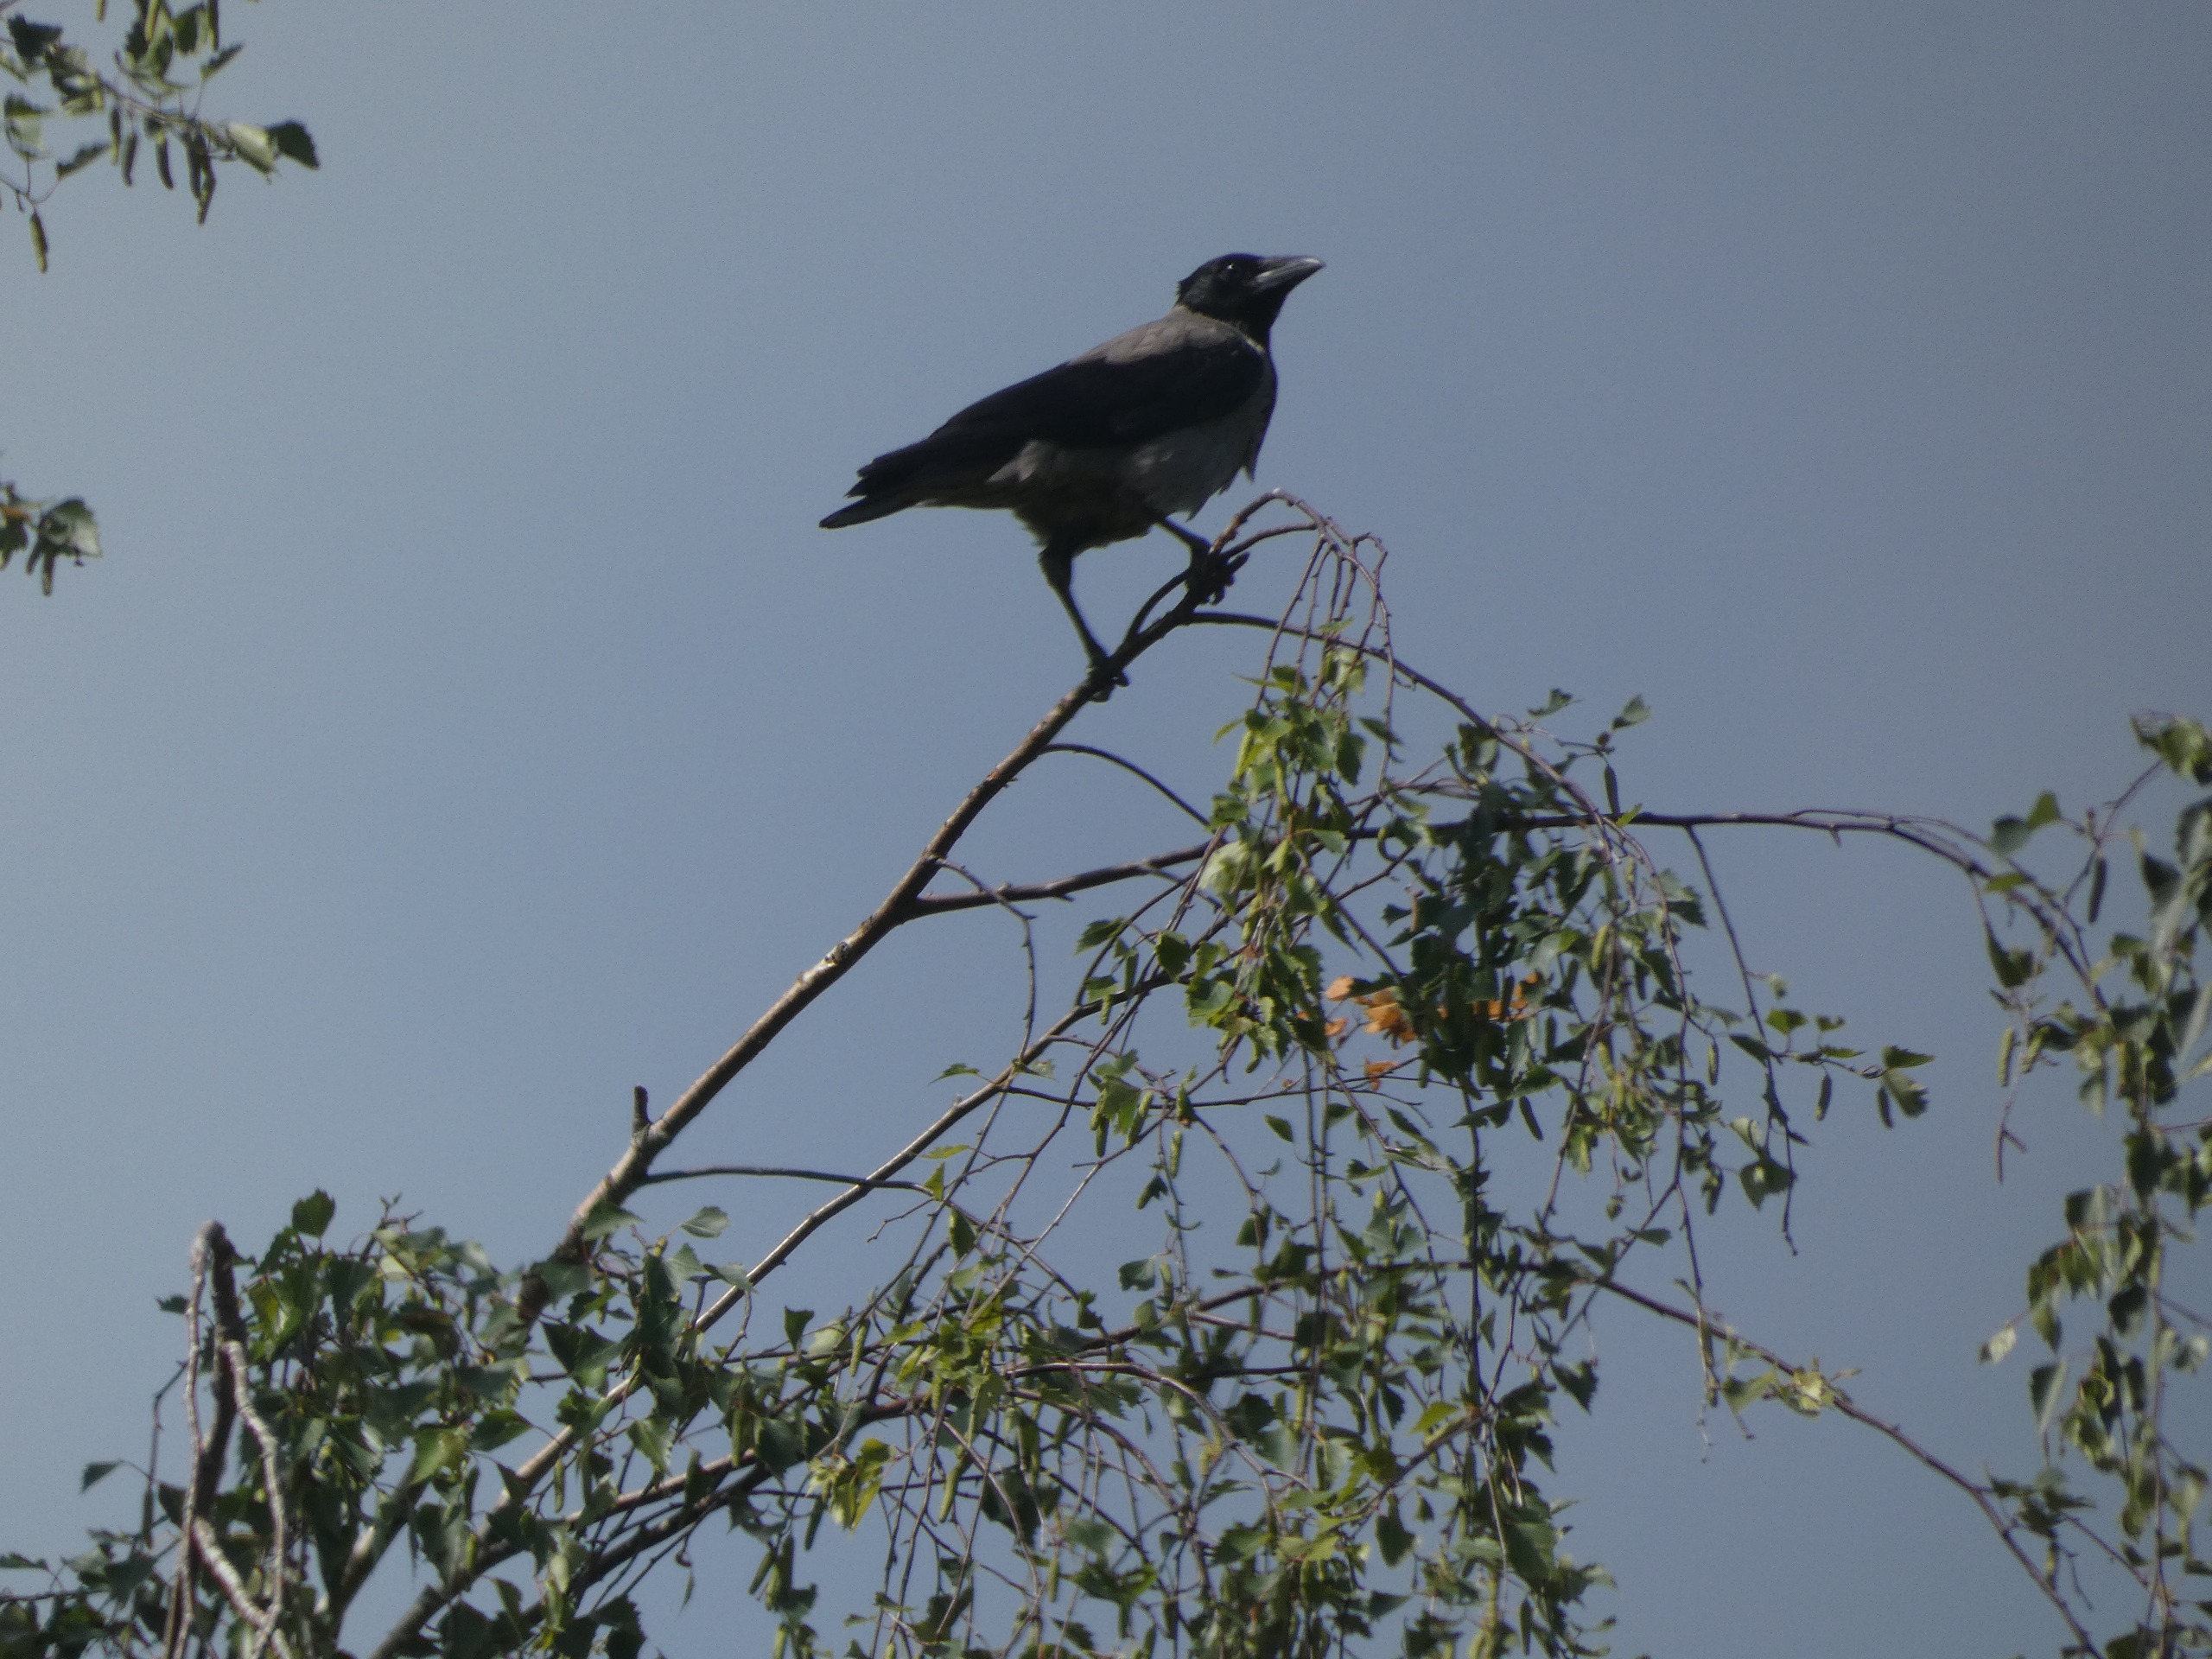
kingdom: Animalia
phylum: Chordata
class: Aves
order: Passeriformes
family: Corvidae
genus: Corvus
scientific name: Corvus cornix
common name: Gråkrage
